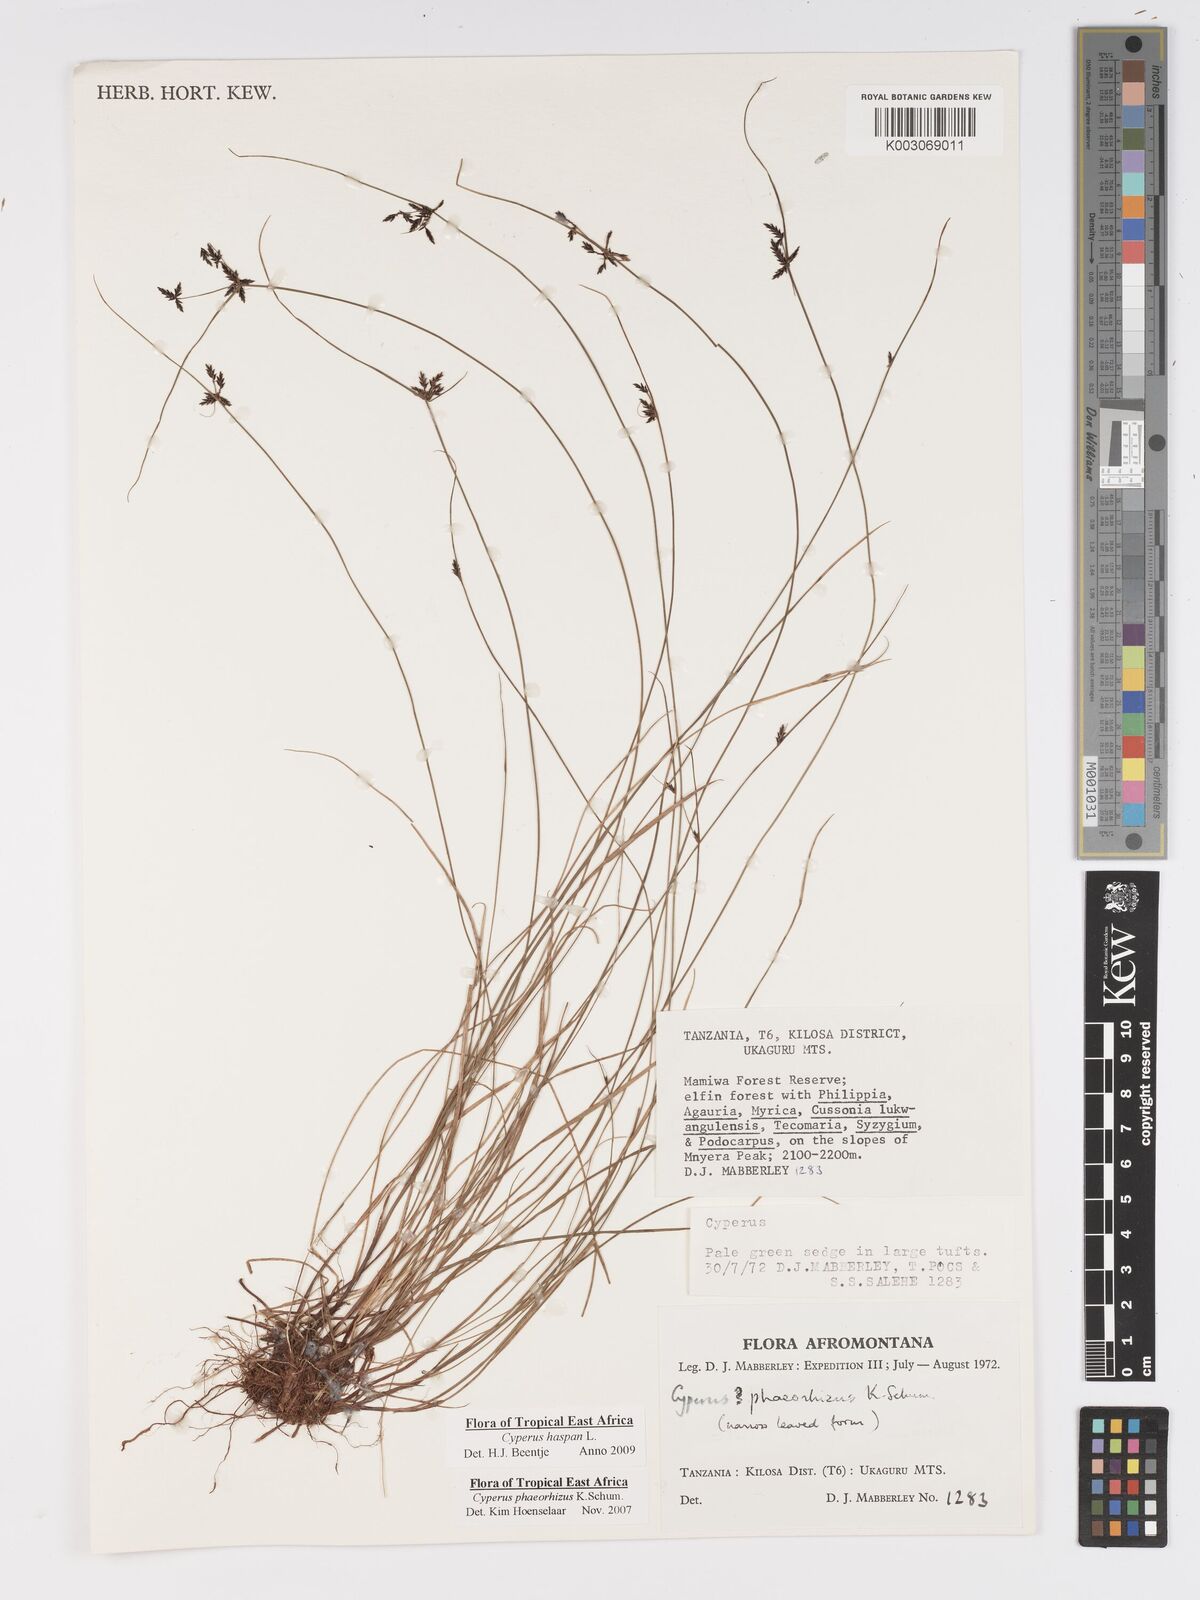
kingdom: Plantae
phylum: Tracheophyta
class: Liliopsida
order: Poales
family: Cyperaceae
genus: Cyperus
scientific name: Cyperus haspan
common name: Haspan flatsedge
